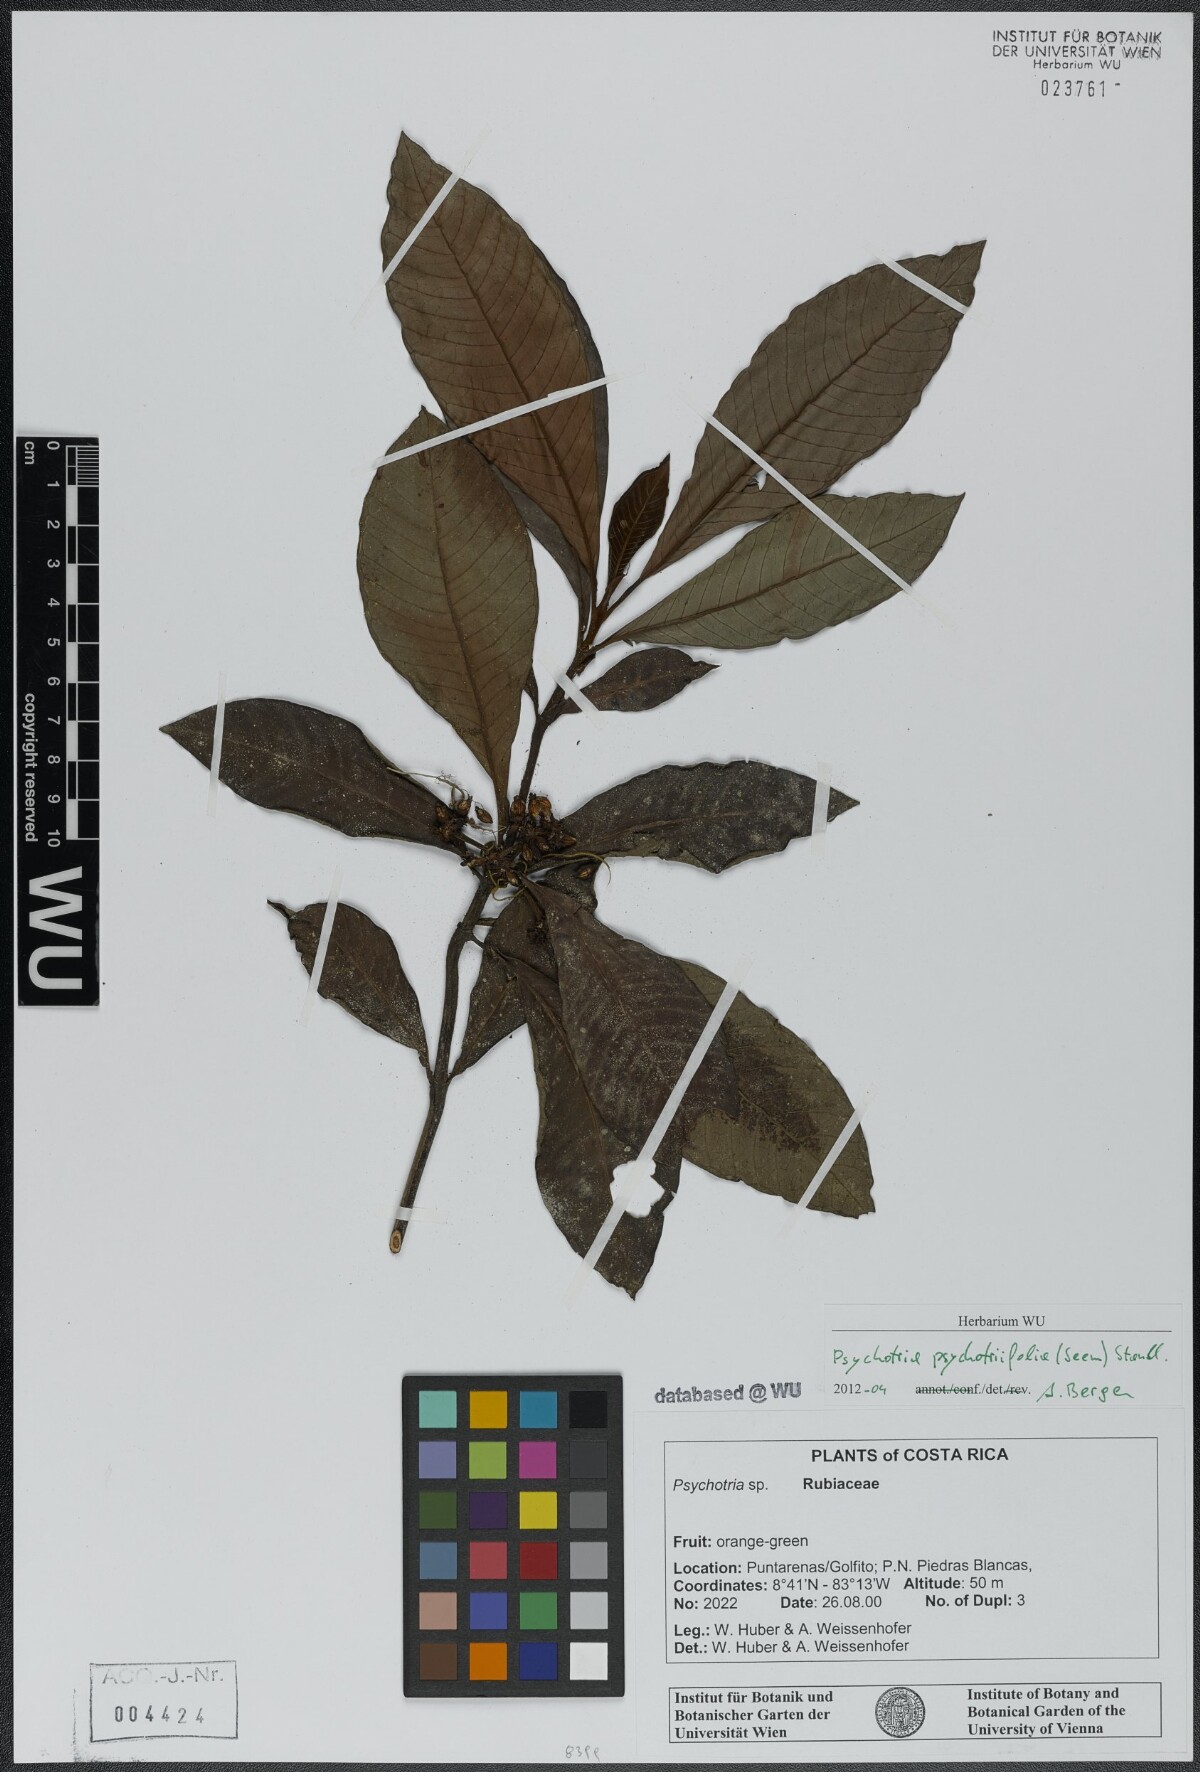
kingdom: Plantae
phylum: Tracheophyta
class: Magnoliopsida
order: Gentianales
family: Rubiaceae
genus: Psychotria
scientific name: Psychotria psychotriifolia
